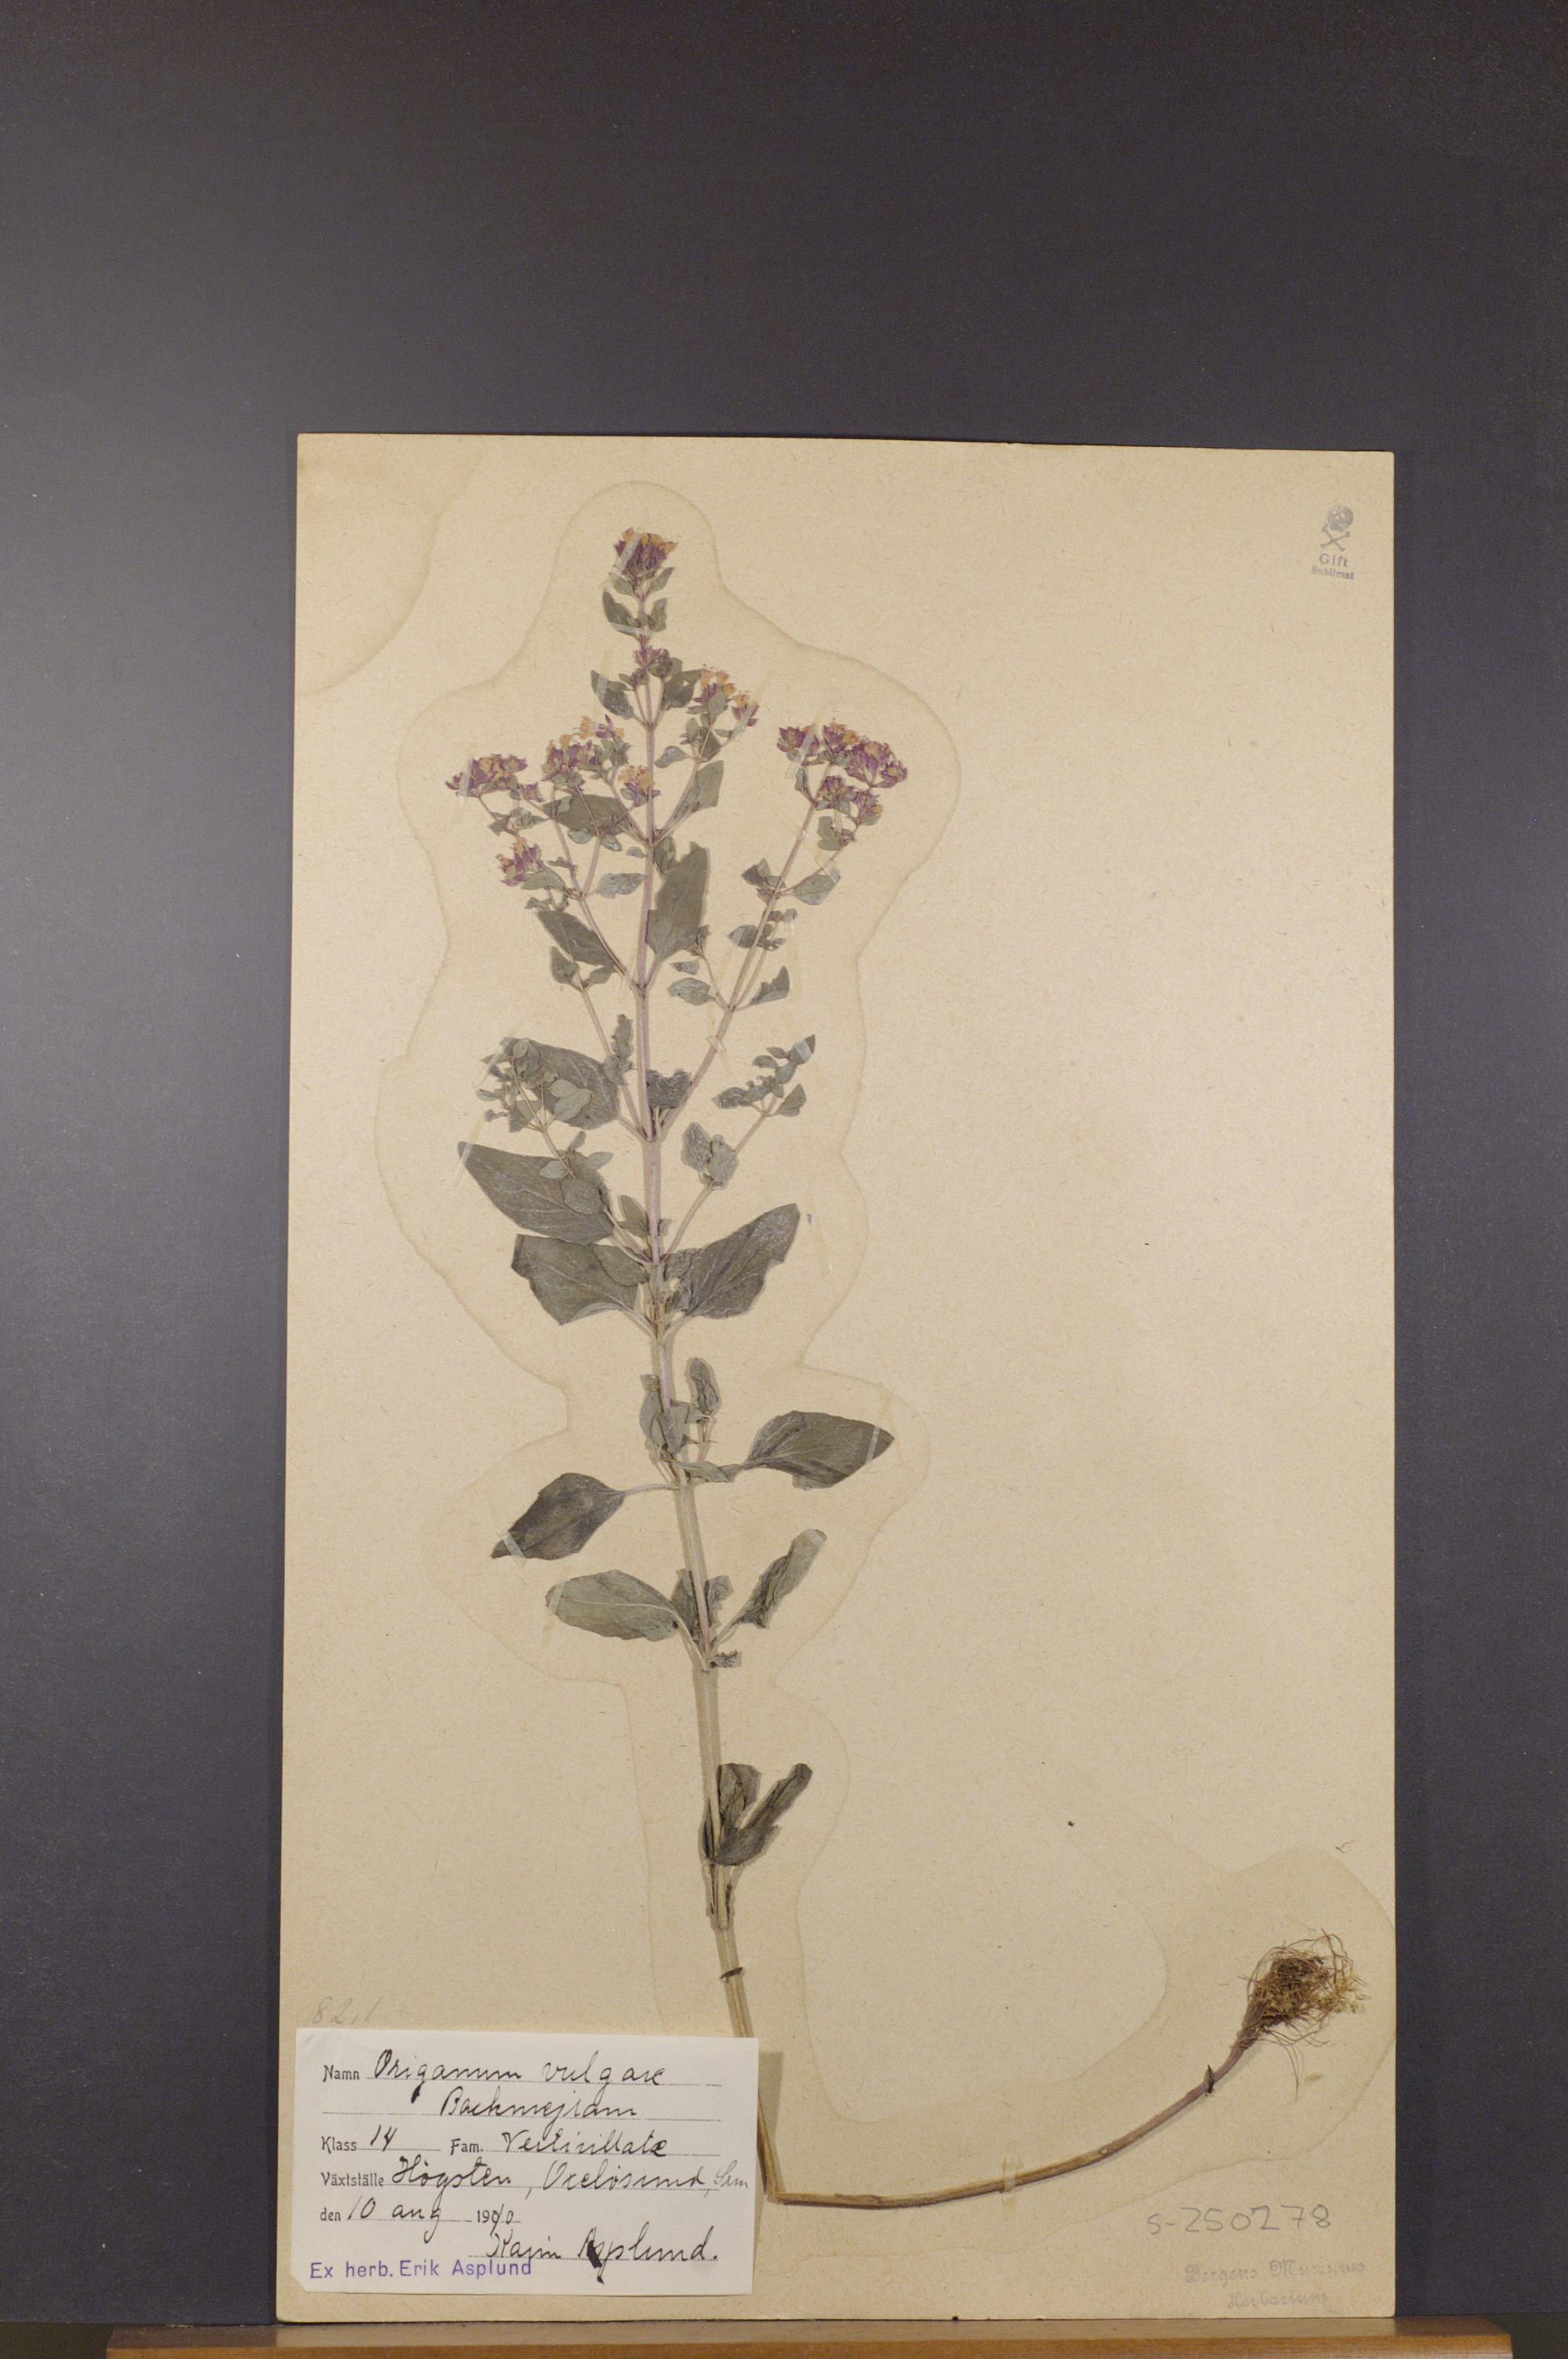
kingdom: Plantae
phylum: Tracheophyta
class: Magnoliopsida
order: Lamiales
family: Lamiaceae
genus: Origanum
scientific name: Origanum vulgare
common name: Wild marjoram
